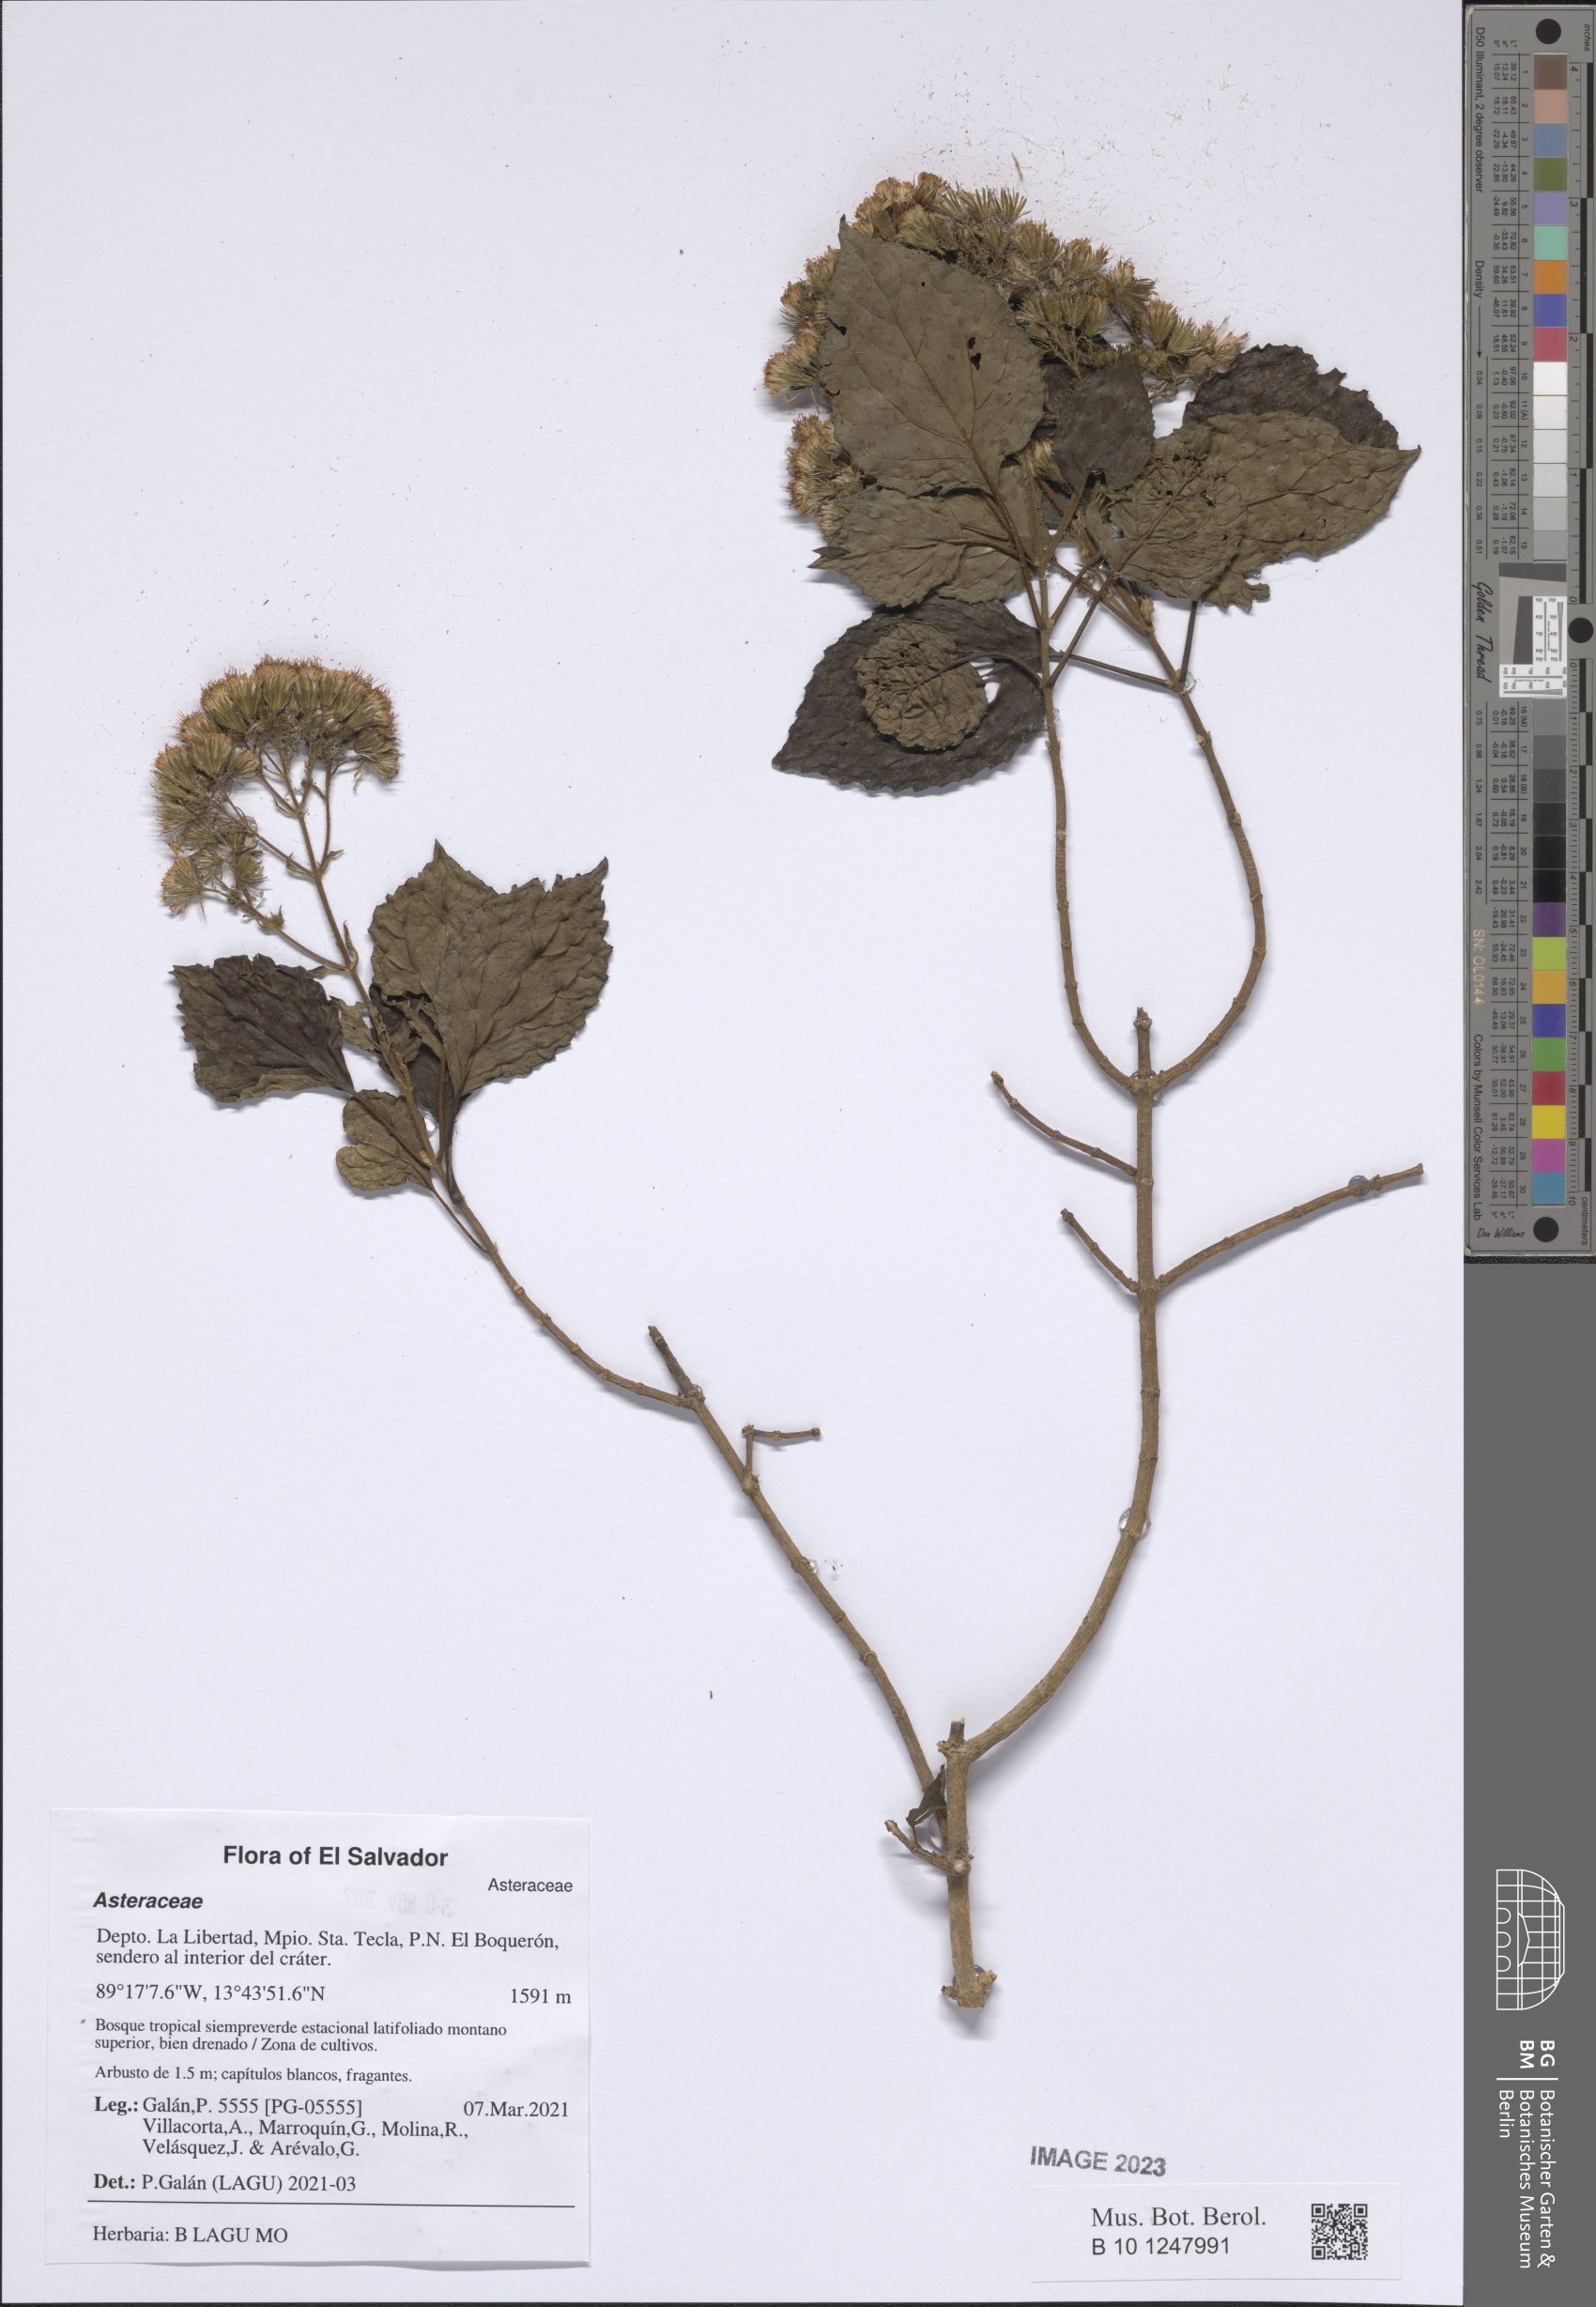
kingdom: Plantae
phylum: Tracheophyta
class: Magnoliopsida
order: Asterales
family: Asteraceae
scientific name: Asteraceae
